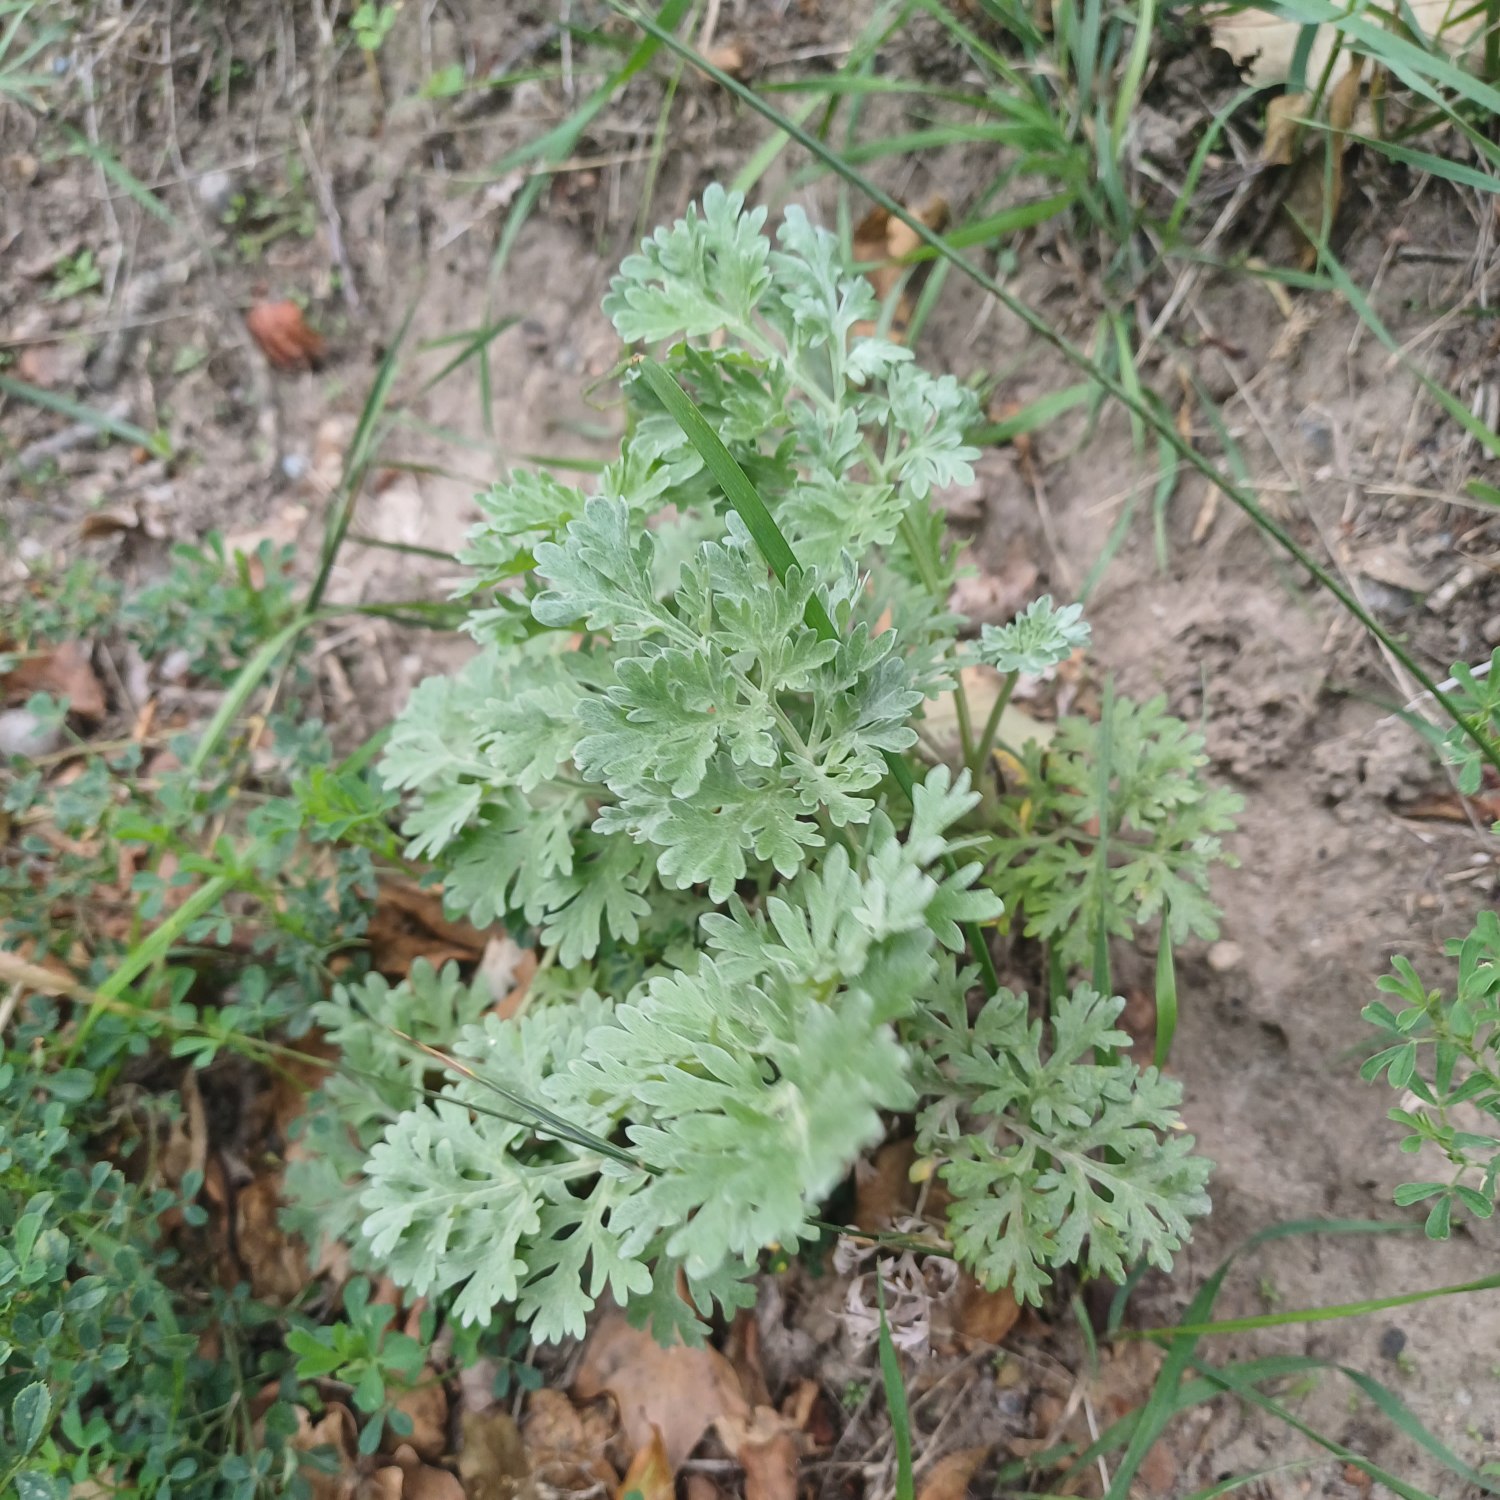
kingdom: Plantae
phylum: Tracheophyta
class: Magnoliopsida
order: Asterales
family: Asteraceae
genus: Artemisia
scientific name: Artemisia absinthium
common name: Havemalurt
